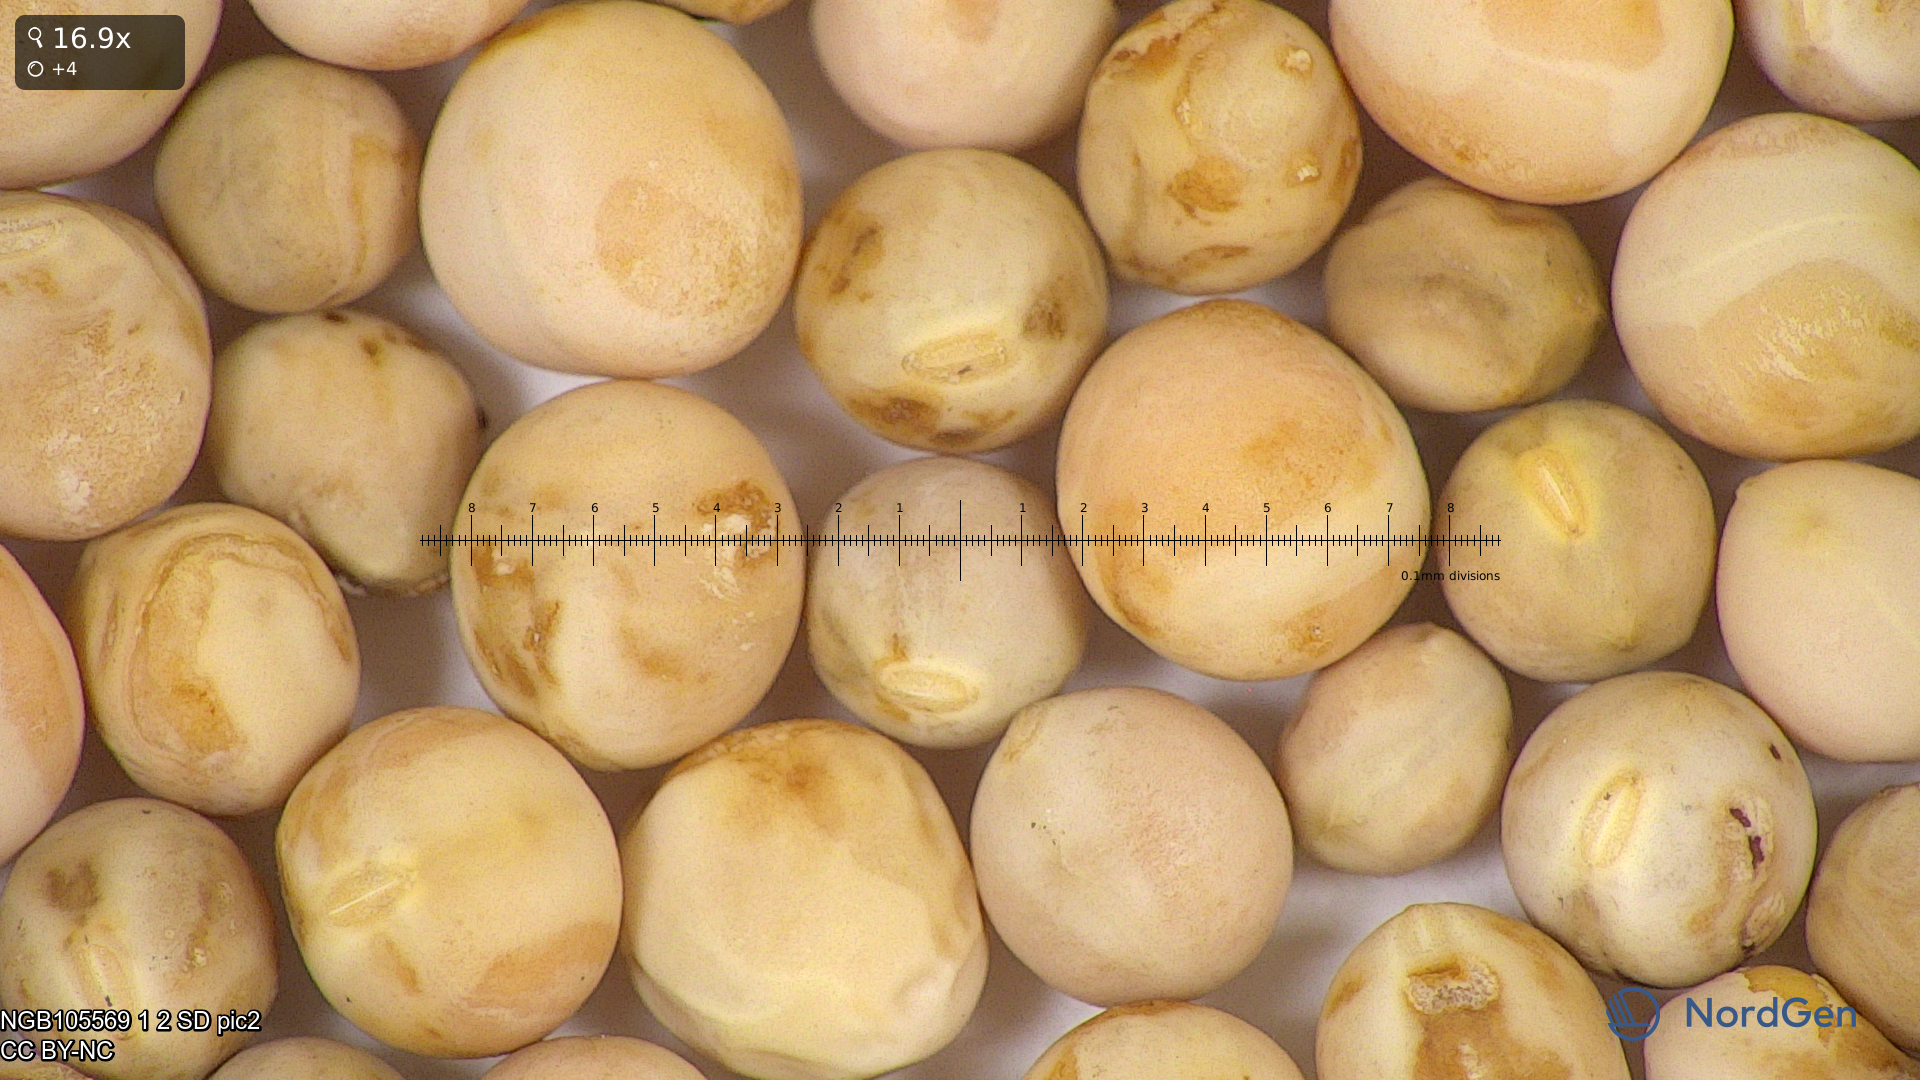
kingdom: Plantae
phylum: Tracheophyta
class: Magnoliopsida
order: Fabales
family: Fabaceae
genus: Lathyrus
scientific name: Lathyrus oleraceus
